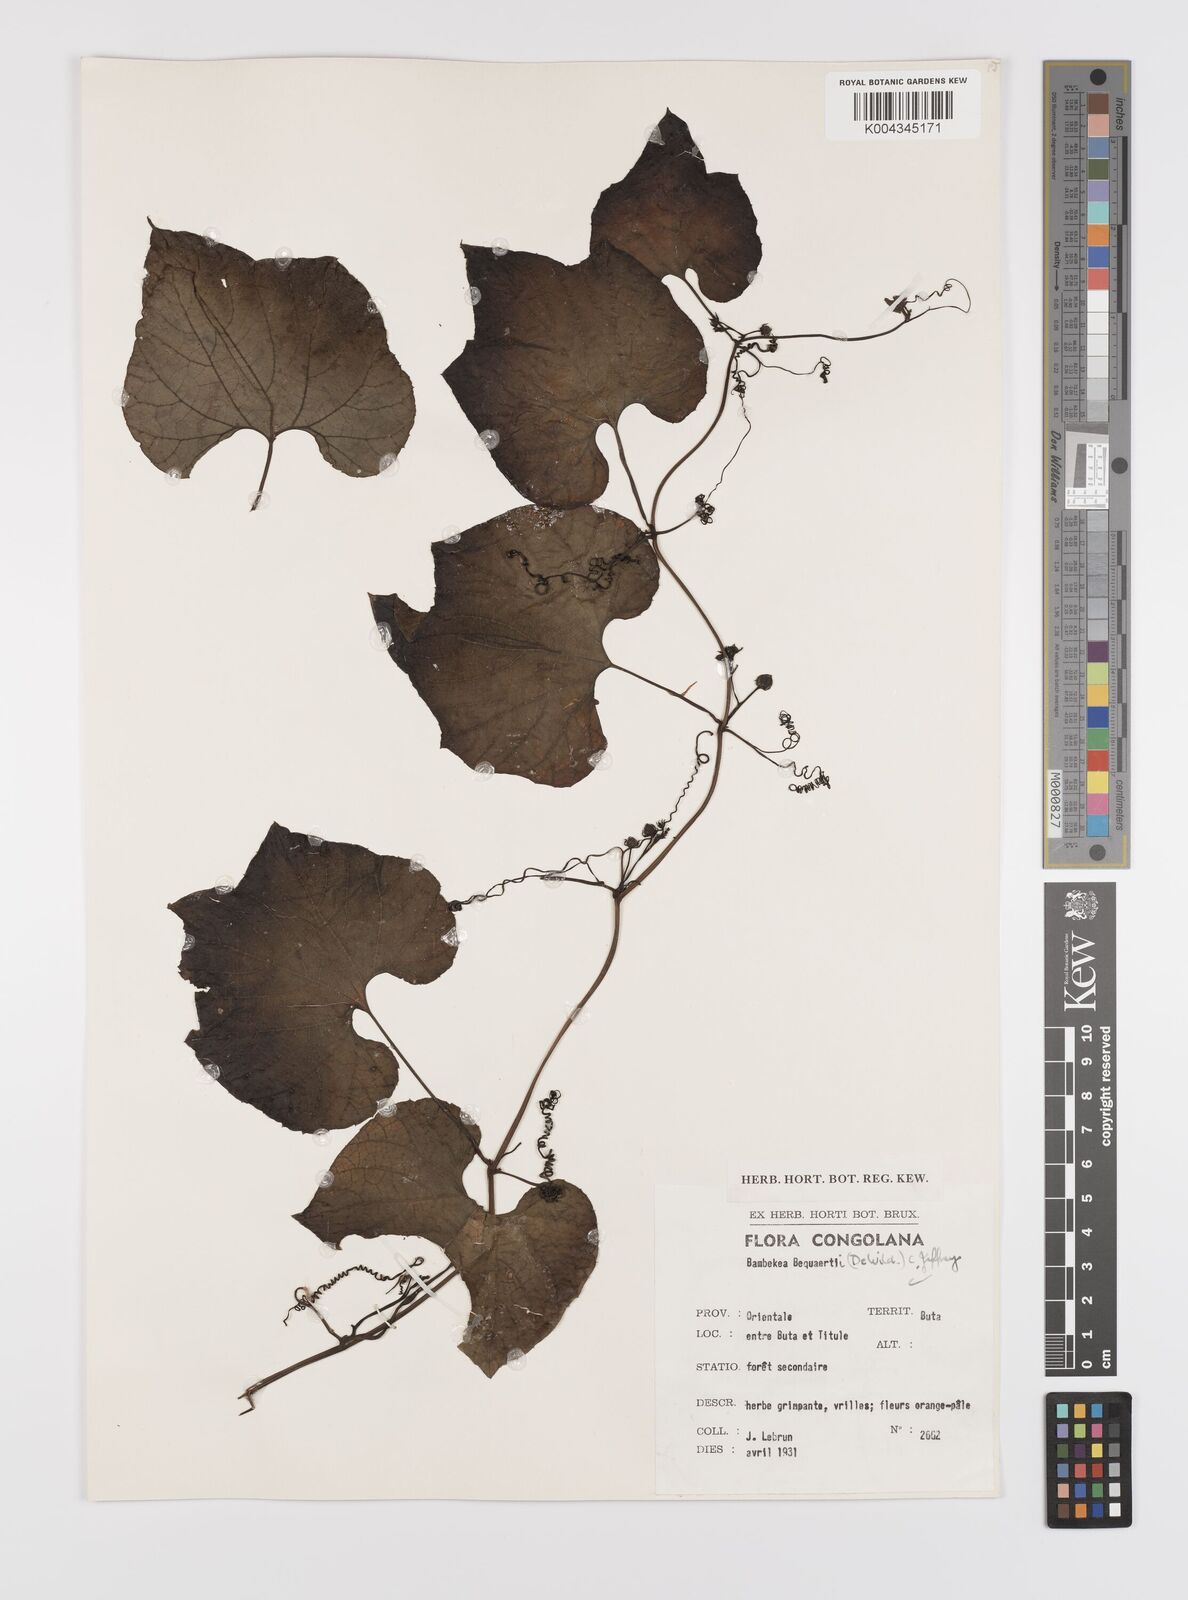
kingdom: Plantae
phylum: Tracheophyta
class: Magnoliopsida
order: Cucurbitales
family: Cucurbitaceae
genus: Bambekea
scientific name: Bambekea racemosa
